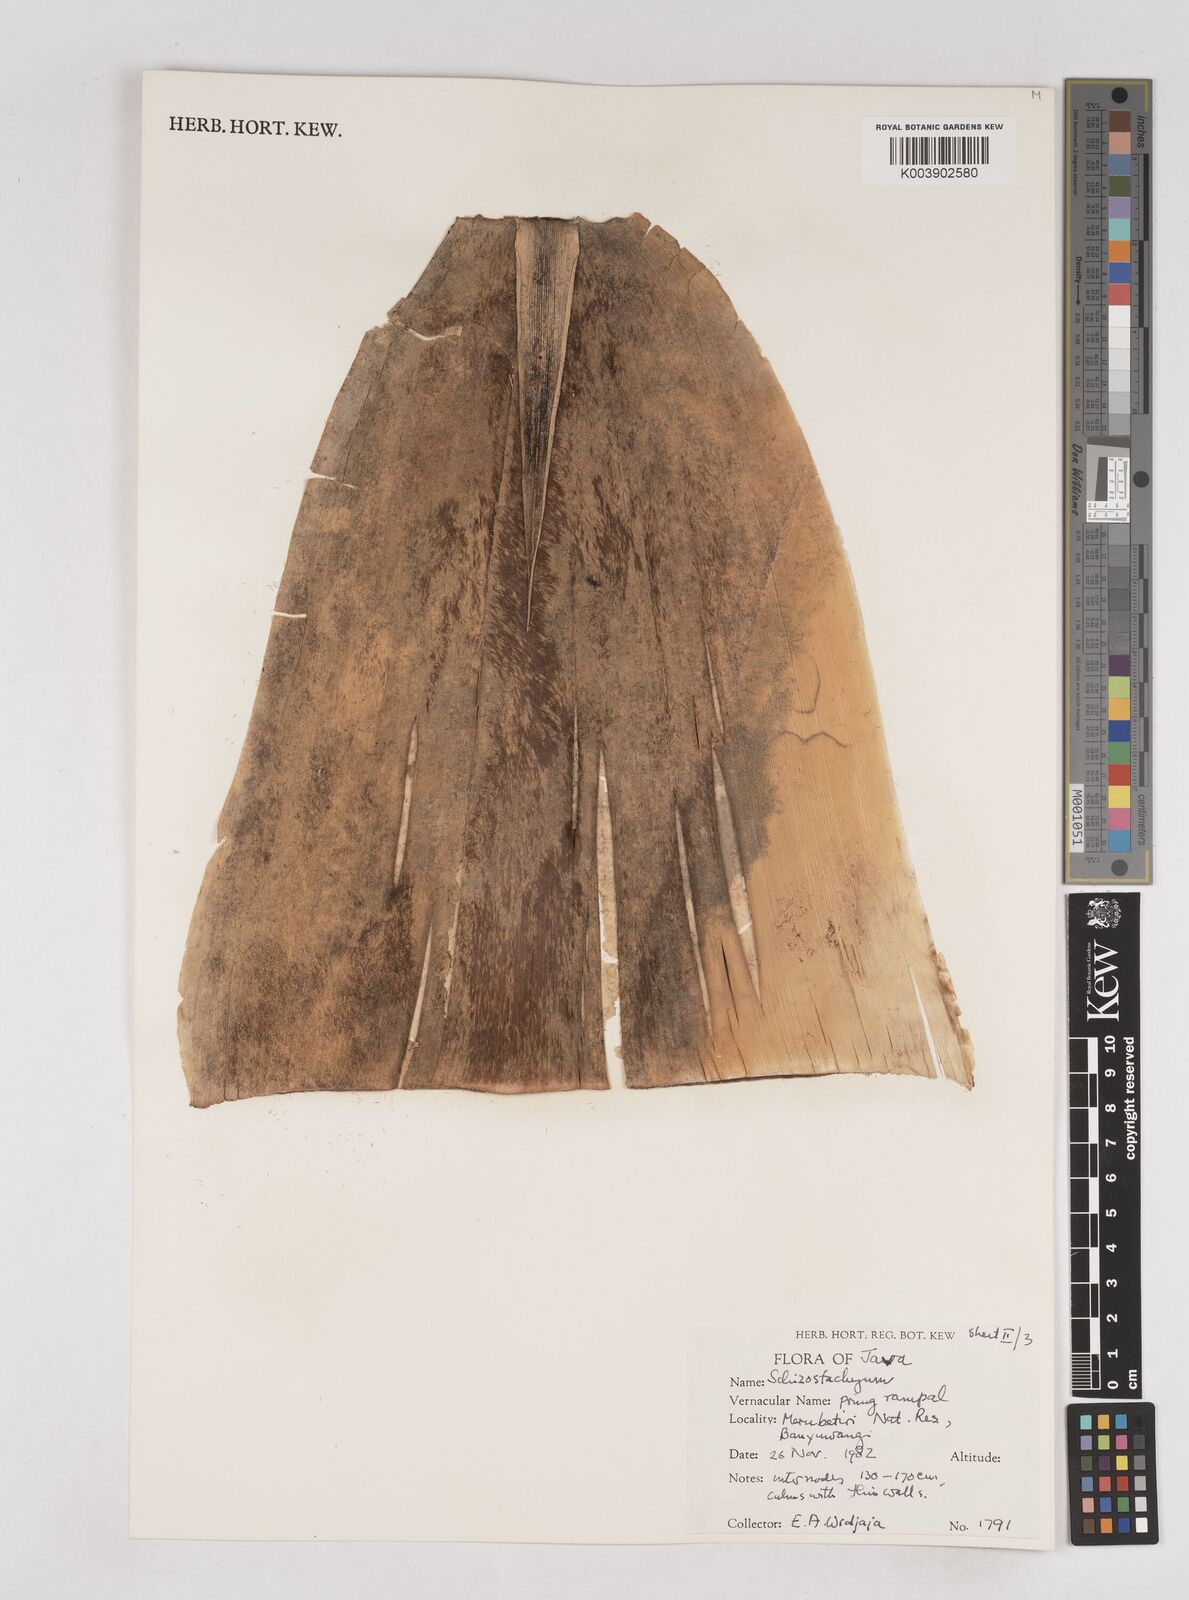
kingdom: Plantae
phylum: Tracheophyta
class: Liliopsida
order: Poales
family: Poaceae
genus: Schizostachyum
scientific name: Schizostachyum
